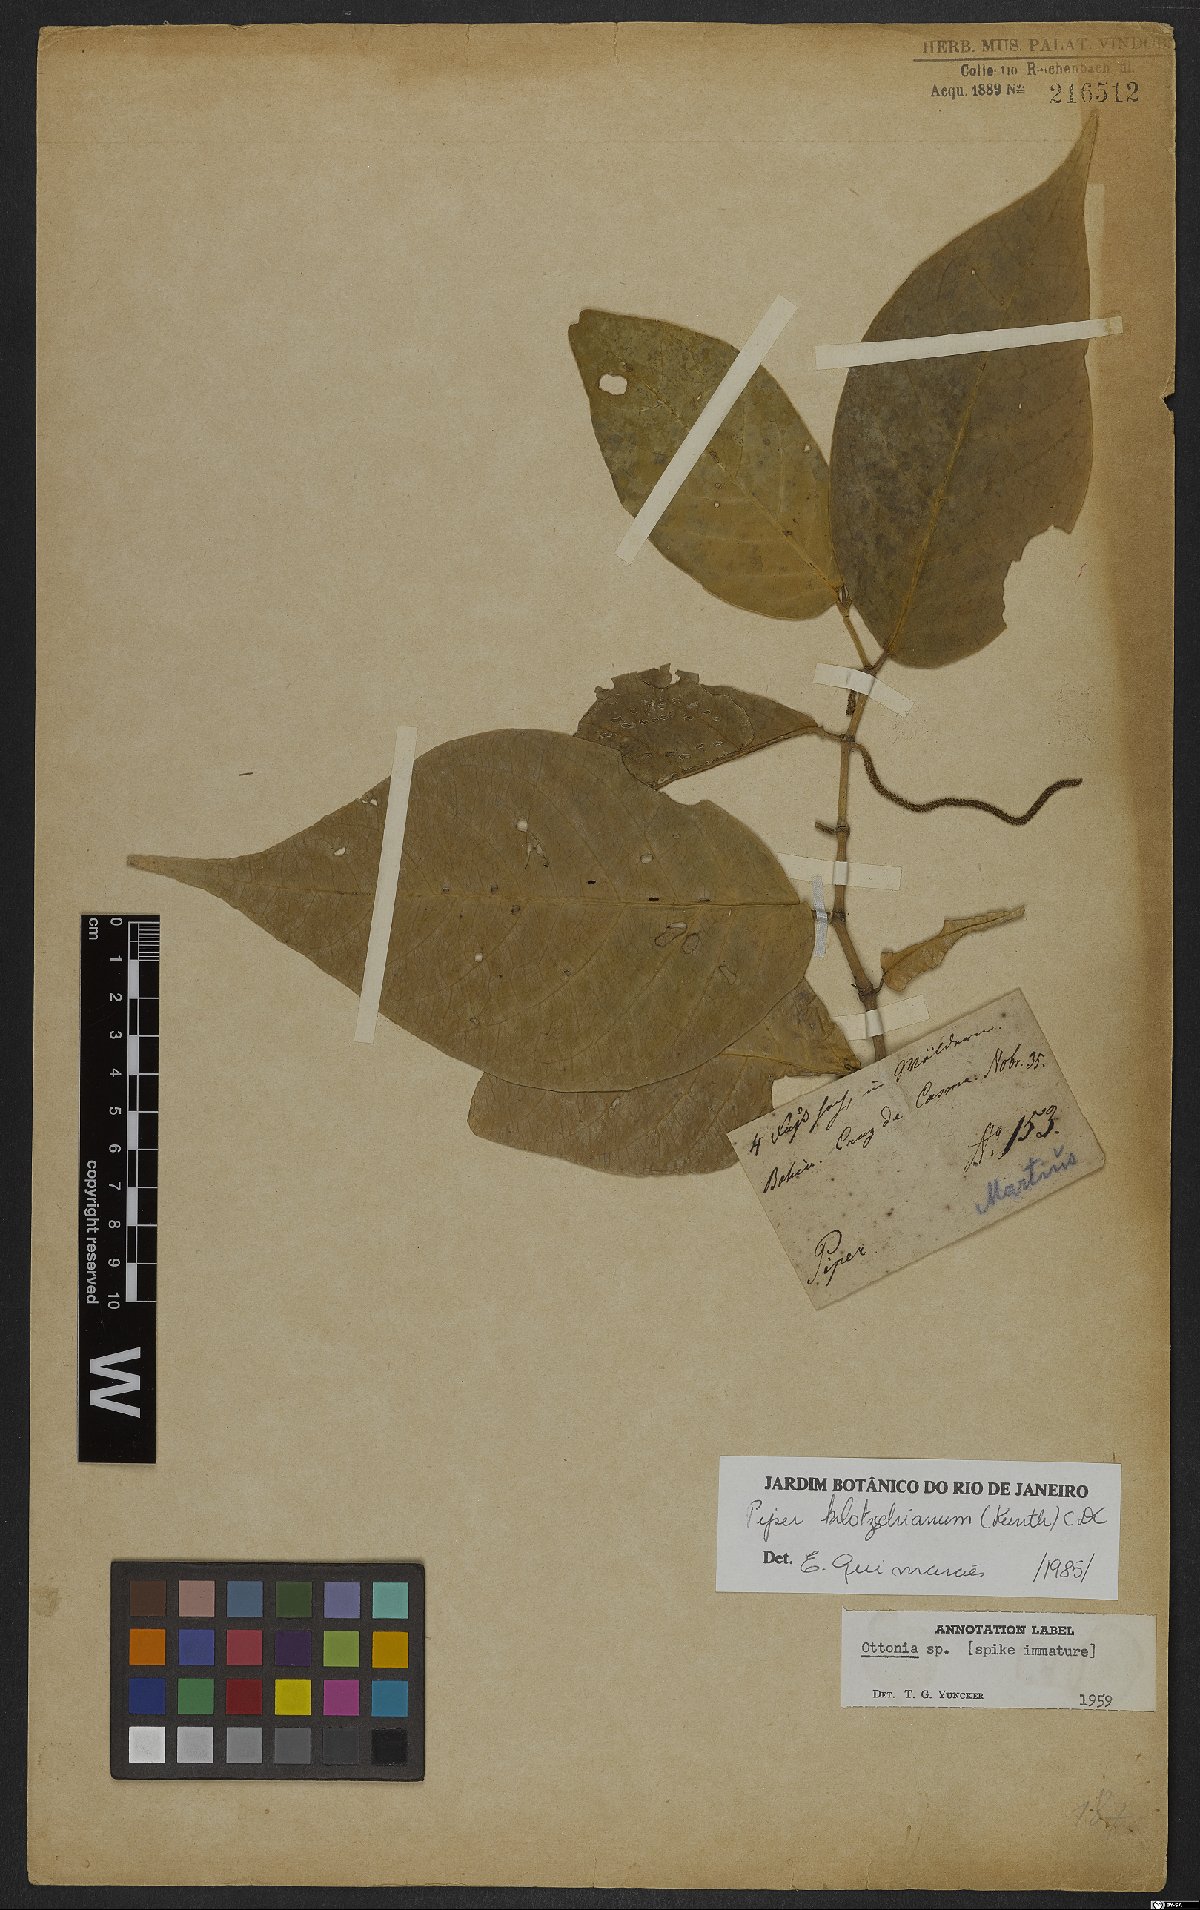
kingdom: Plantae
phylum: Tracheophyta
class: Magnoliopsida
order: Piperales
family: Piperaceae
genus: Piper
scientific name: Piper klotzschianum
